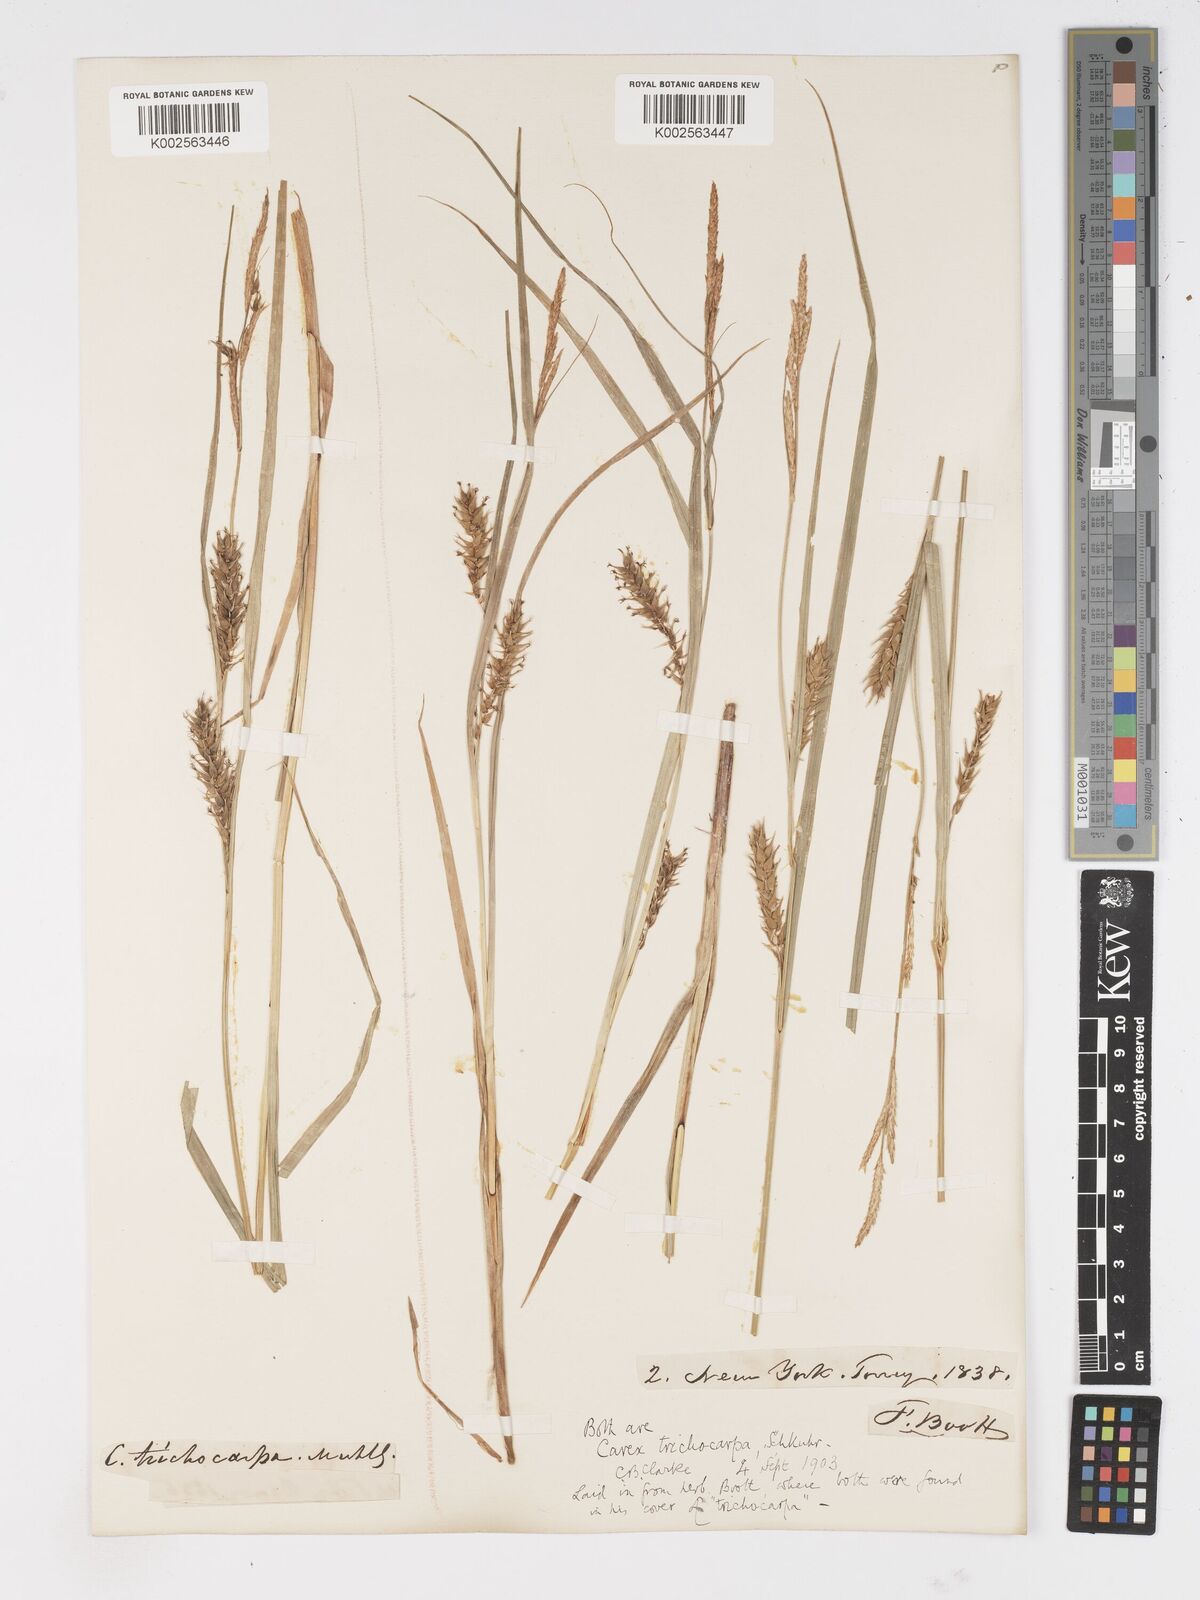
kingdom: Plantae
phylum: Tracheophyta
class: Liliopsida
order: Poales
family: Cyperaceae
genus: Carex
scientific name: Carex trichocarpa
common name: Hairy-fruited lake sedge
